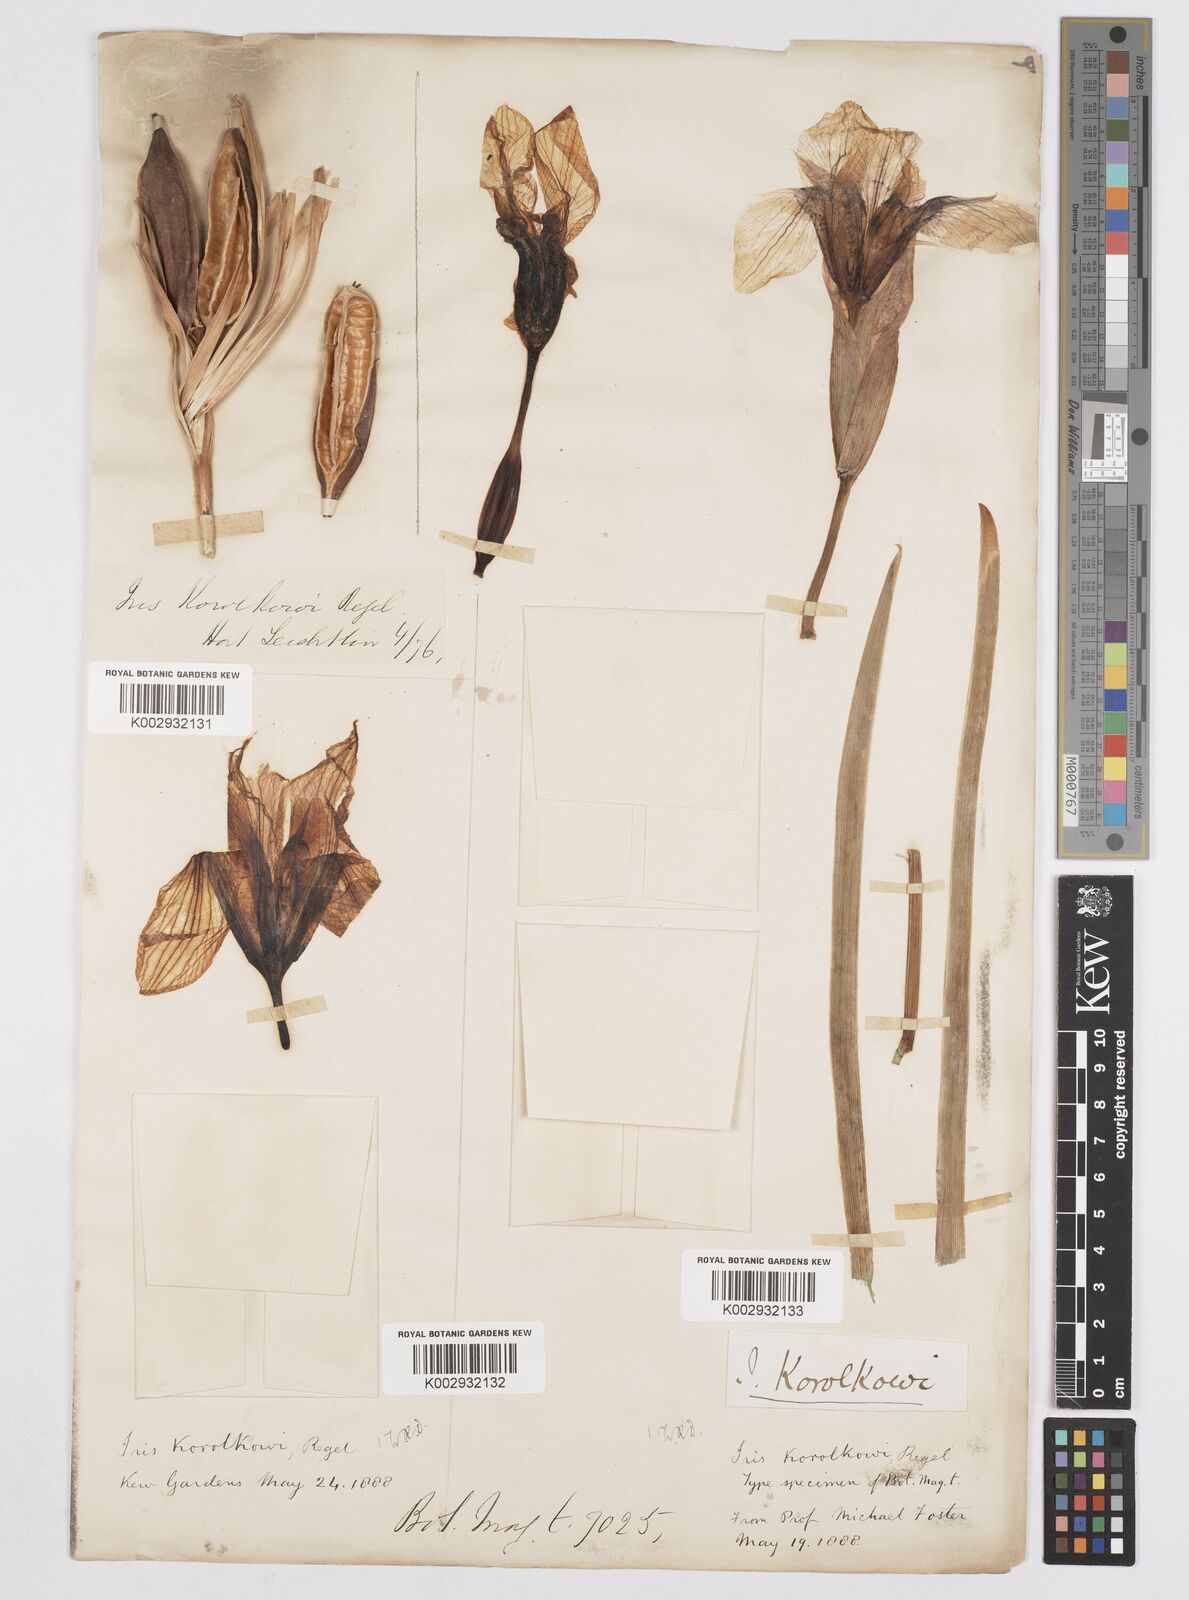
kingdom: Plantae
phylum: Tracheophyta
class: Liliopsida
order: Asparagales
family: Iridaceae
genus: Iris
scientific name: Iris korolkowii
